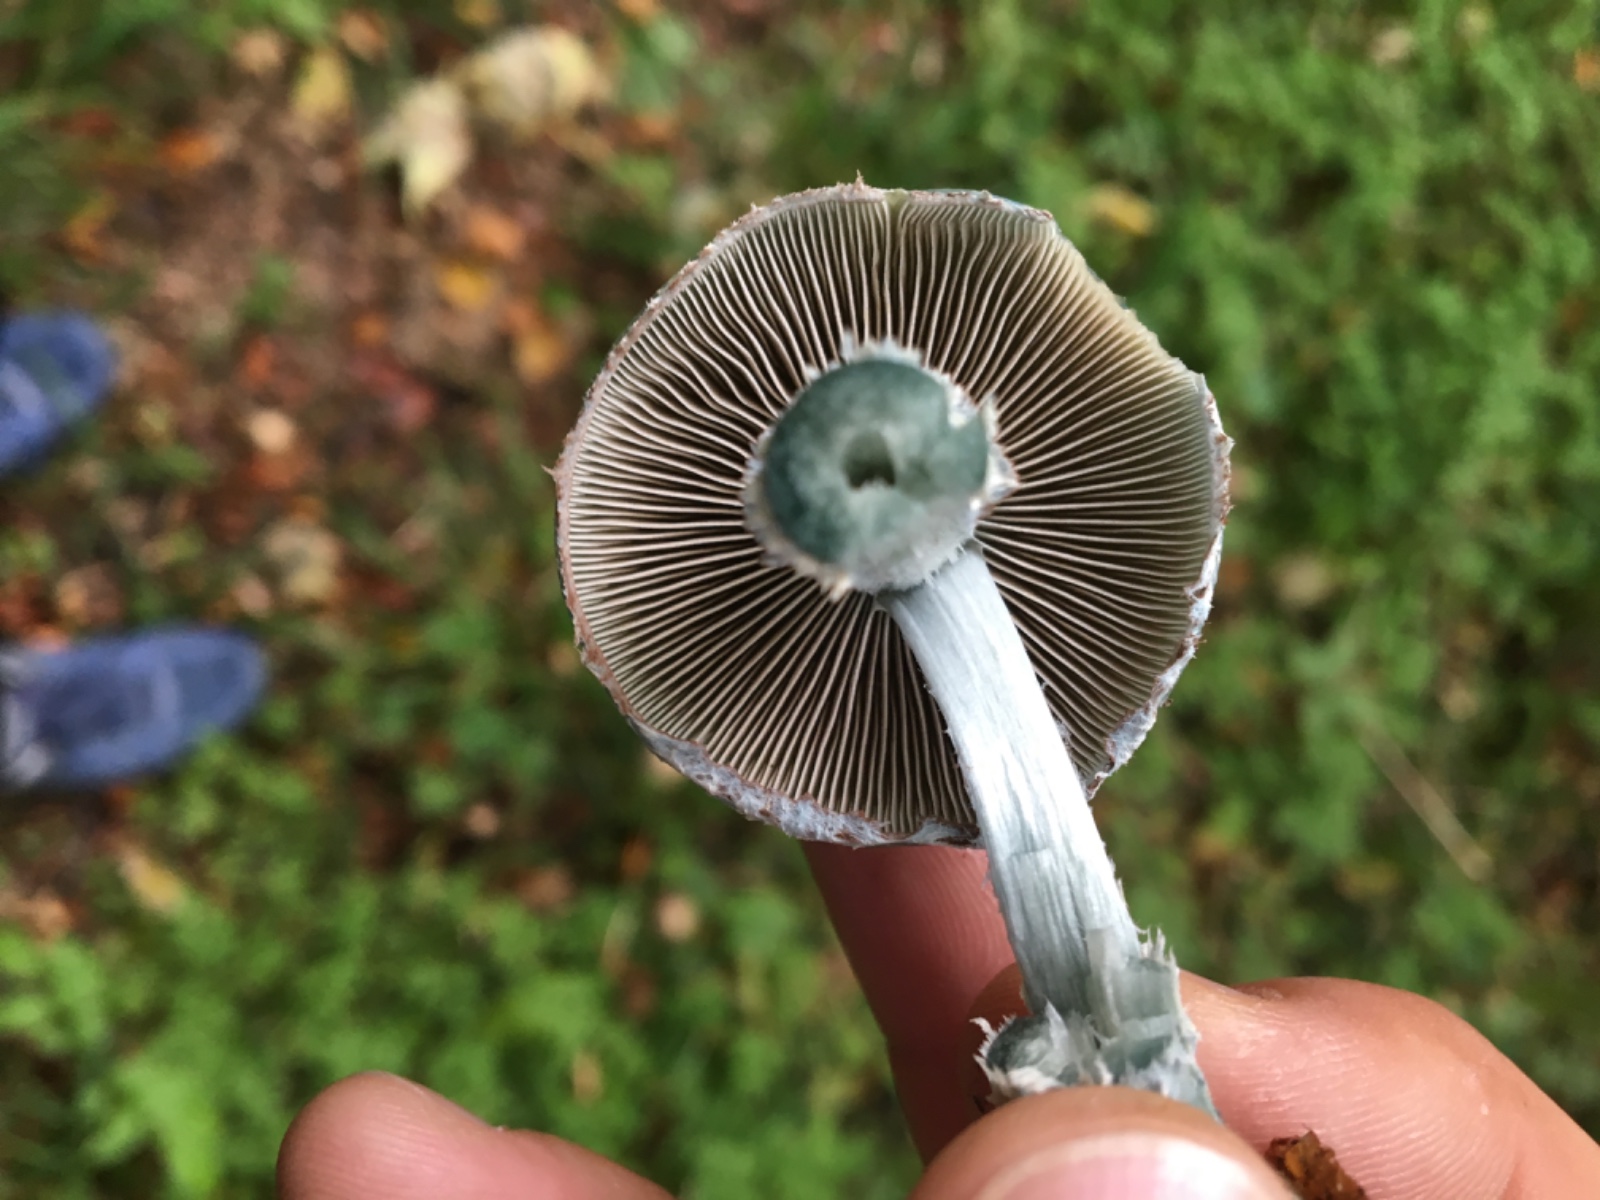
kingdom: Fungi
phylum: Basidiomycota
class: Agaricomycetes
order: Agaricales
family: Strophariaceae
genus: Stropharia
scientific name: Stropharia aeruginosa
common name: spanskgrøn bredblad
